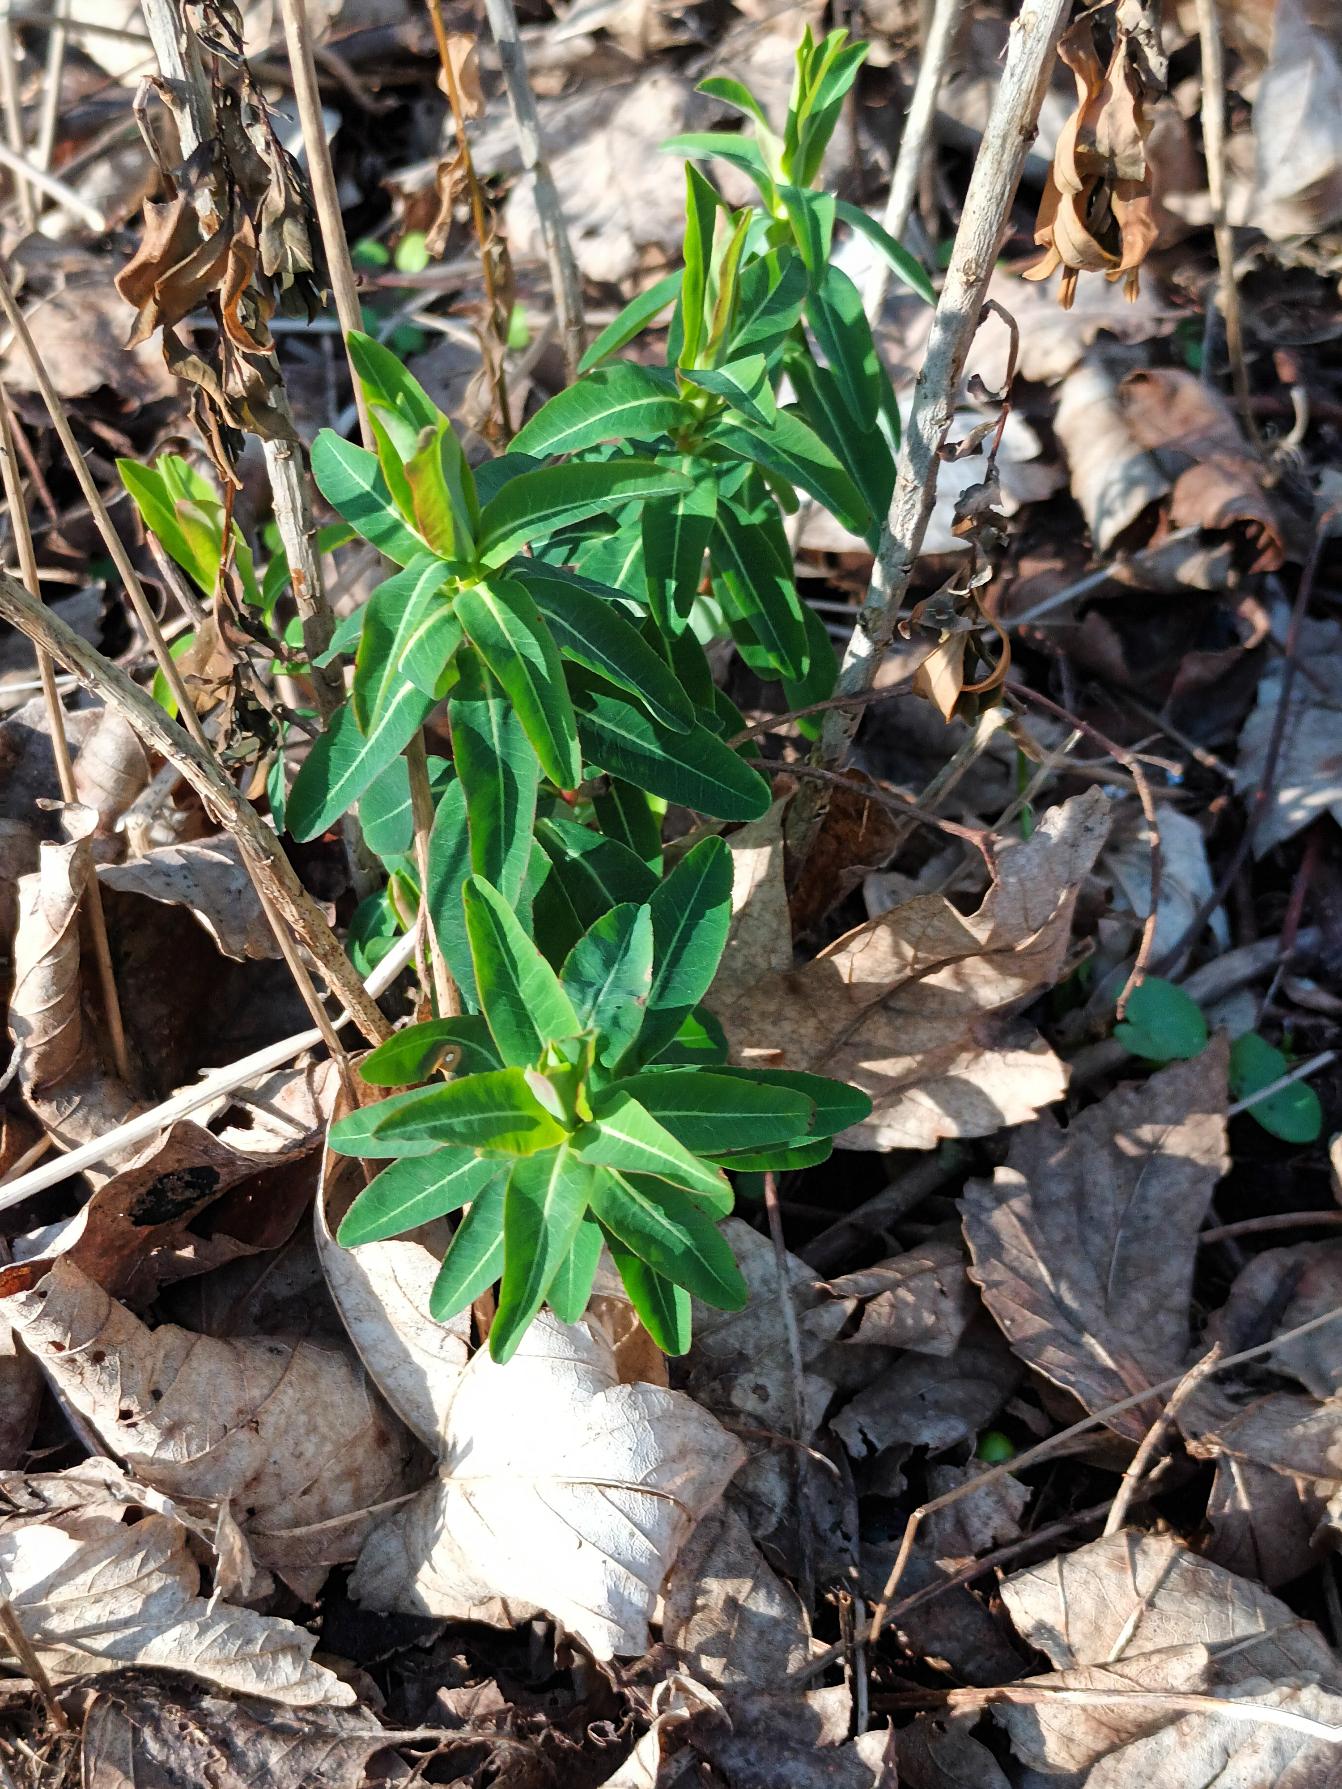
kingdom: Plantae
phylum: Tracheophyta
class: Magnoliopsida
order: Malpighiales
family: Euphorbiaceae
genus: Euphorbia
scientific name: Euphorbia oblongata
